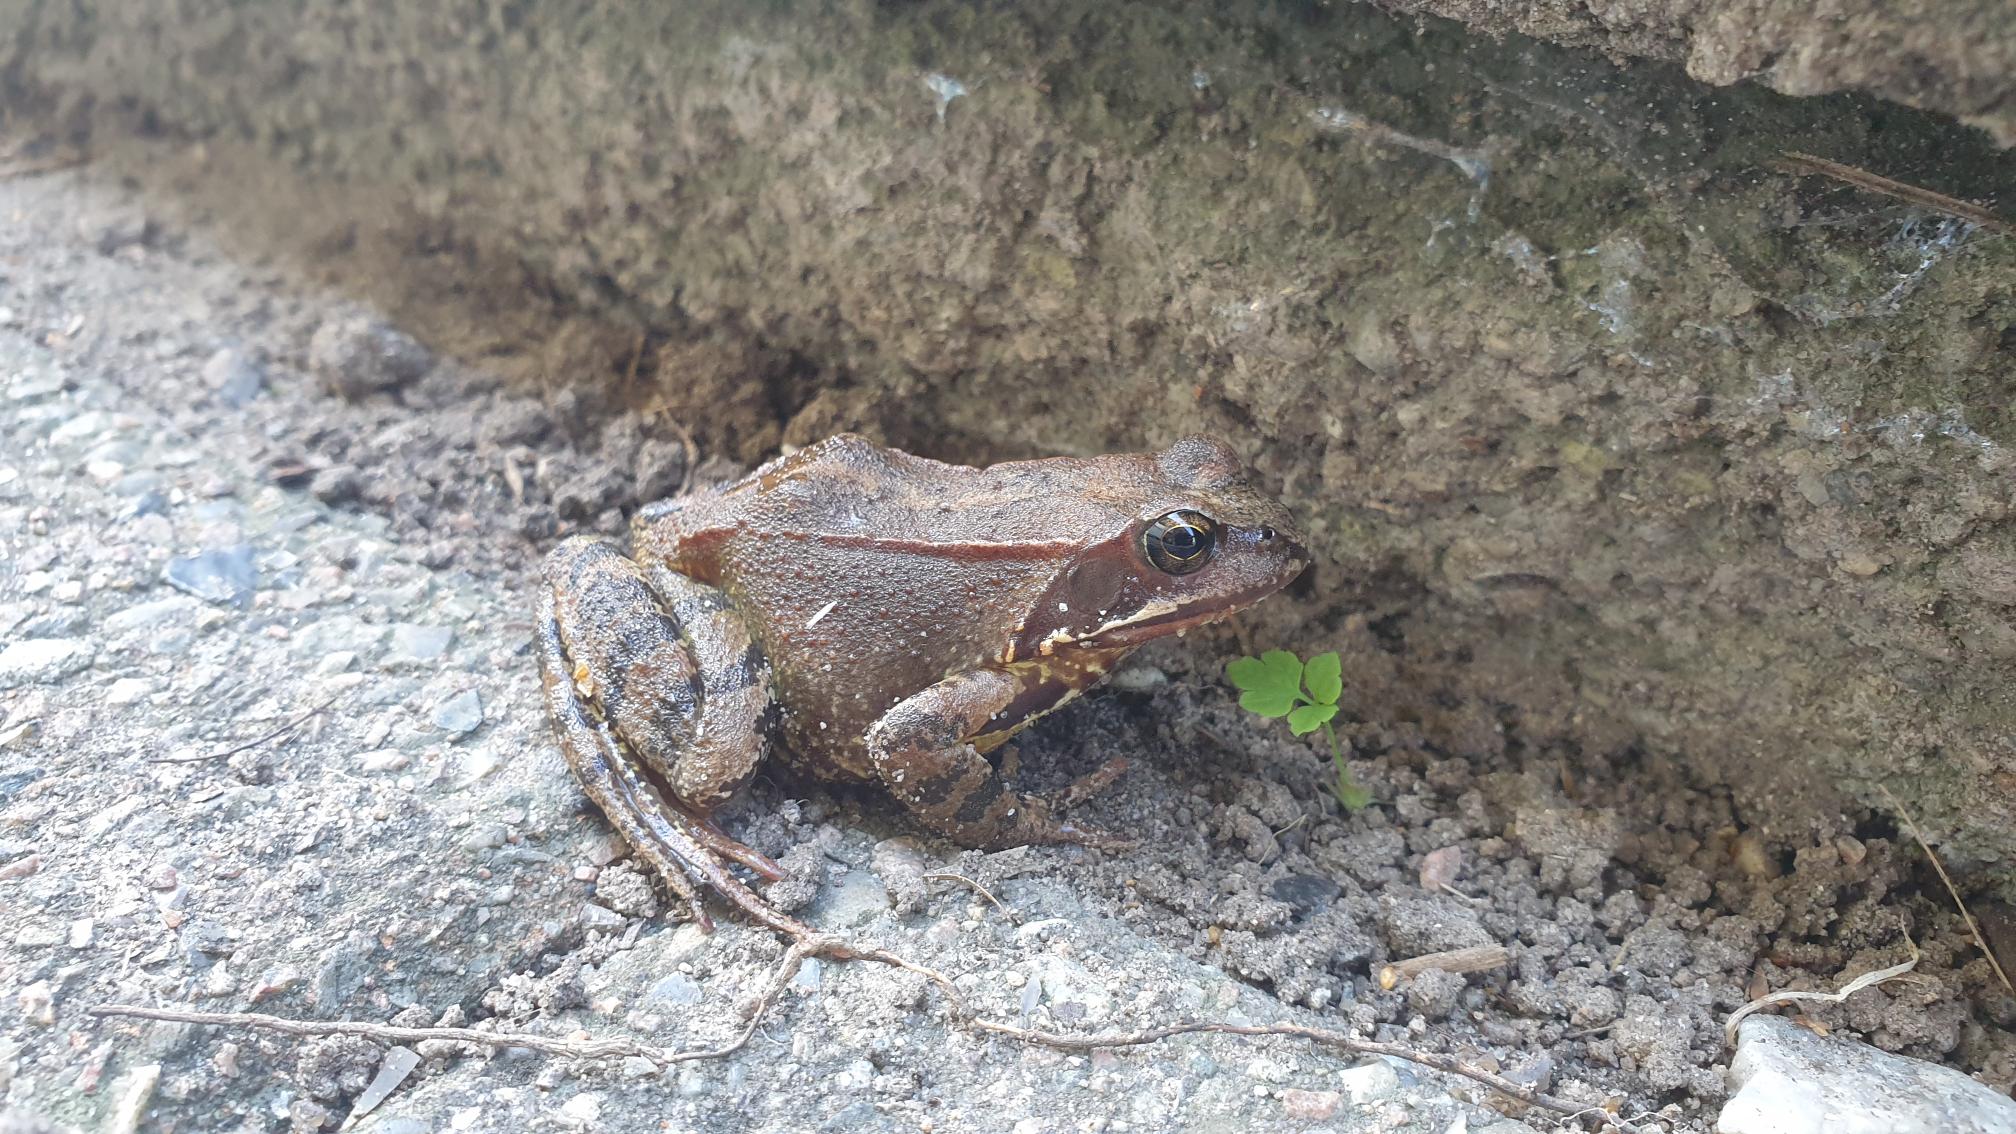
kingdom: Animalia
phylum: Chordata
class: Amphibia
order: Anura
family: Ranidae
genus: Rana
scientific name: Rana temporaria
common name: Butsnudet frø
